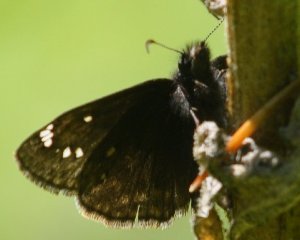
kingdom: Animalia
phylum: Arthropoda
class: Insecta
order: Lepidoptera
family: Hesperiidae
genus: Autochton
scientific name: Autochton
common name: Northern Cloudywing
